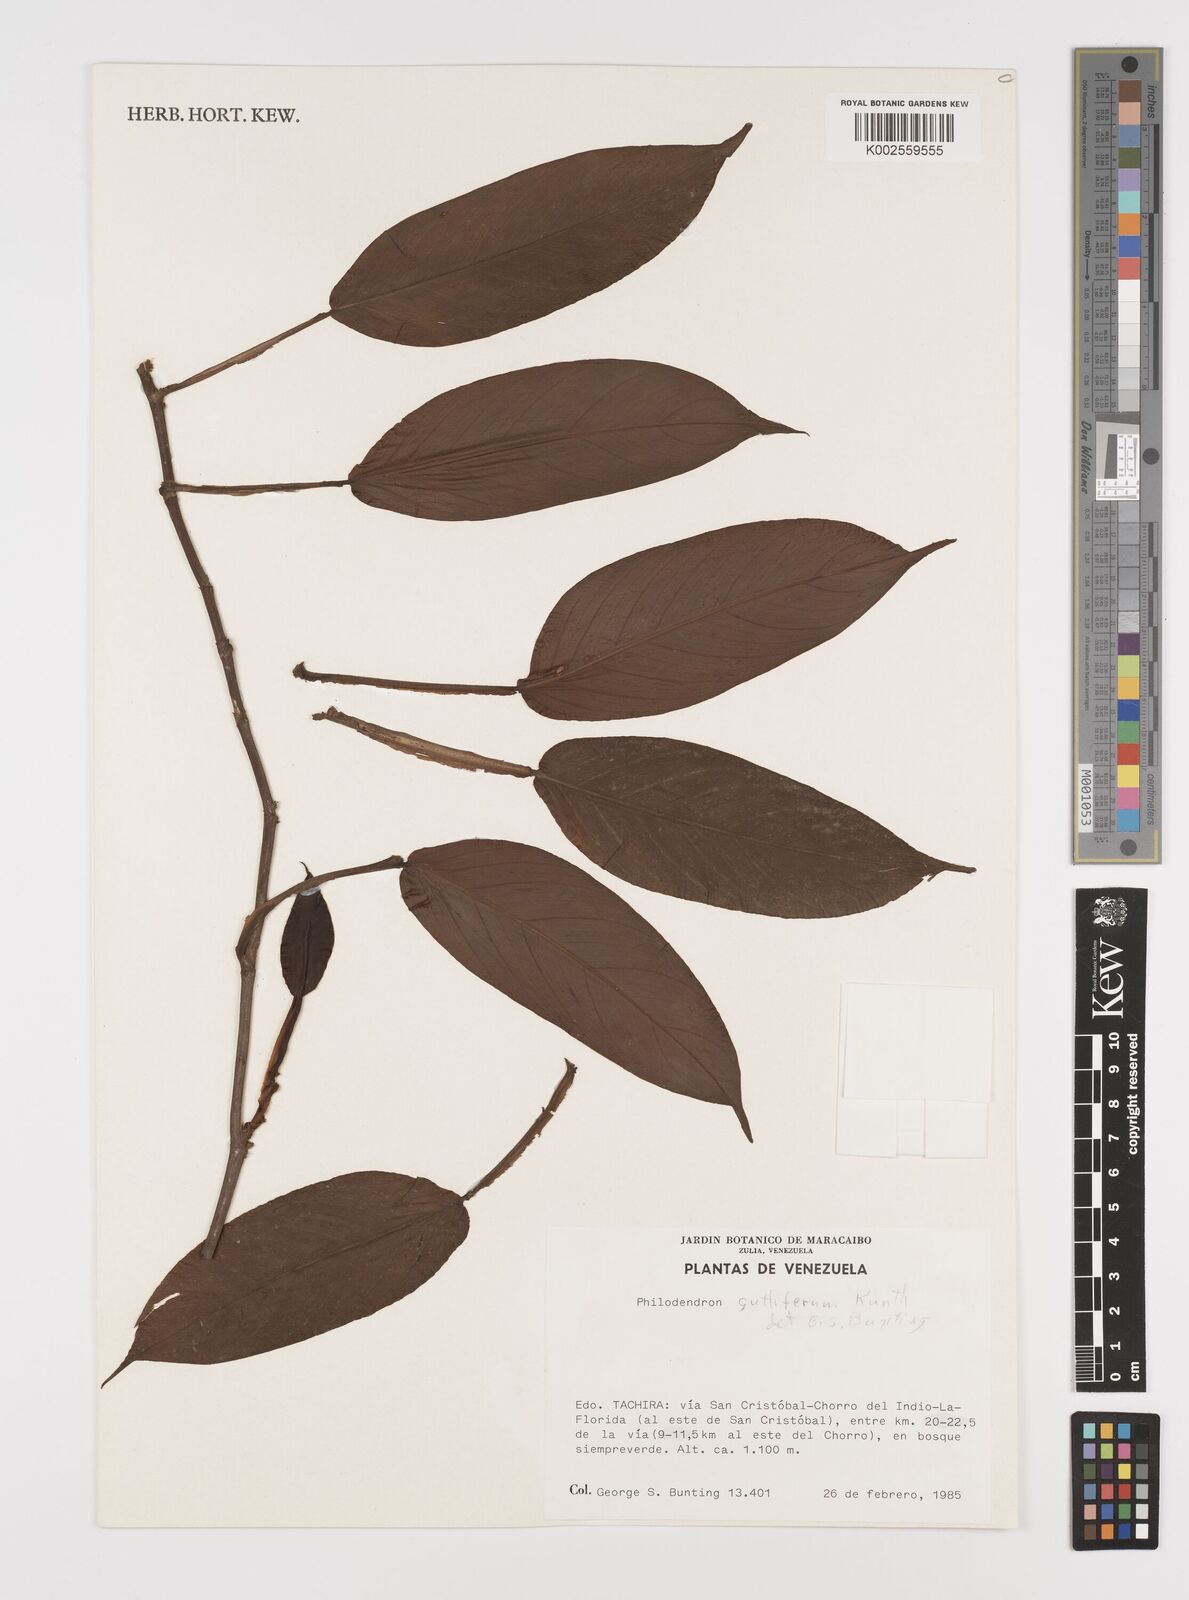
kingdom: Plantae
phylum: Tracheophyta
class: Liliopsida
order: Alismatales
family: Araceae
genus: Philodendron
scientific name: Philodendron guttiferum
